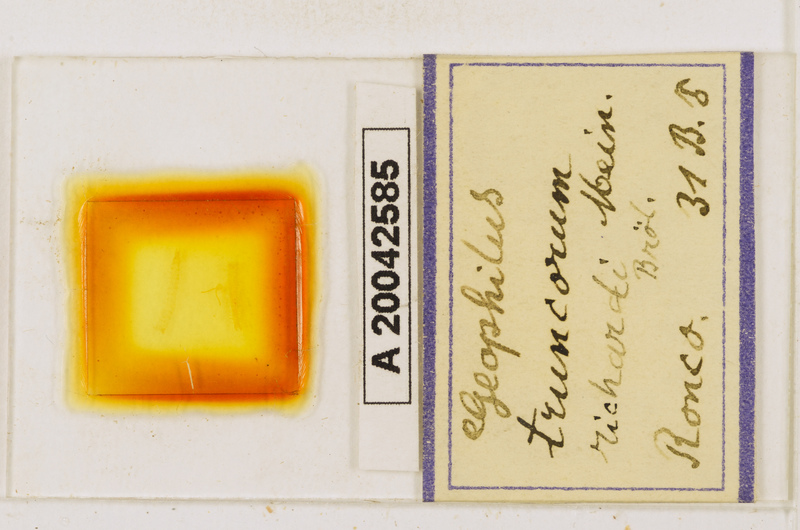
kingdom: Animalia
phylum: Arthropoda
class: Chilopoda
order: Geophilomorpha
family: Geophilidae
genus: Geophilus
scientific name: Geophilus truncorum
